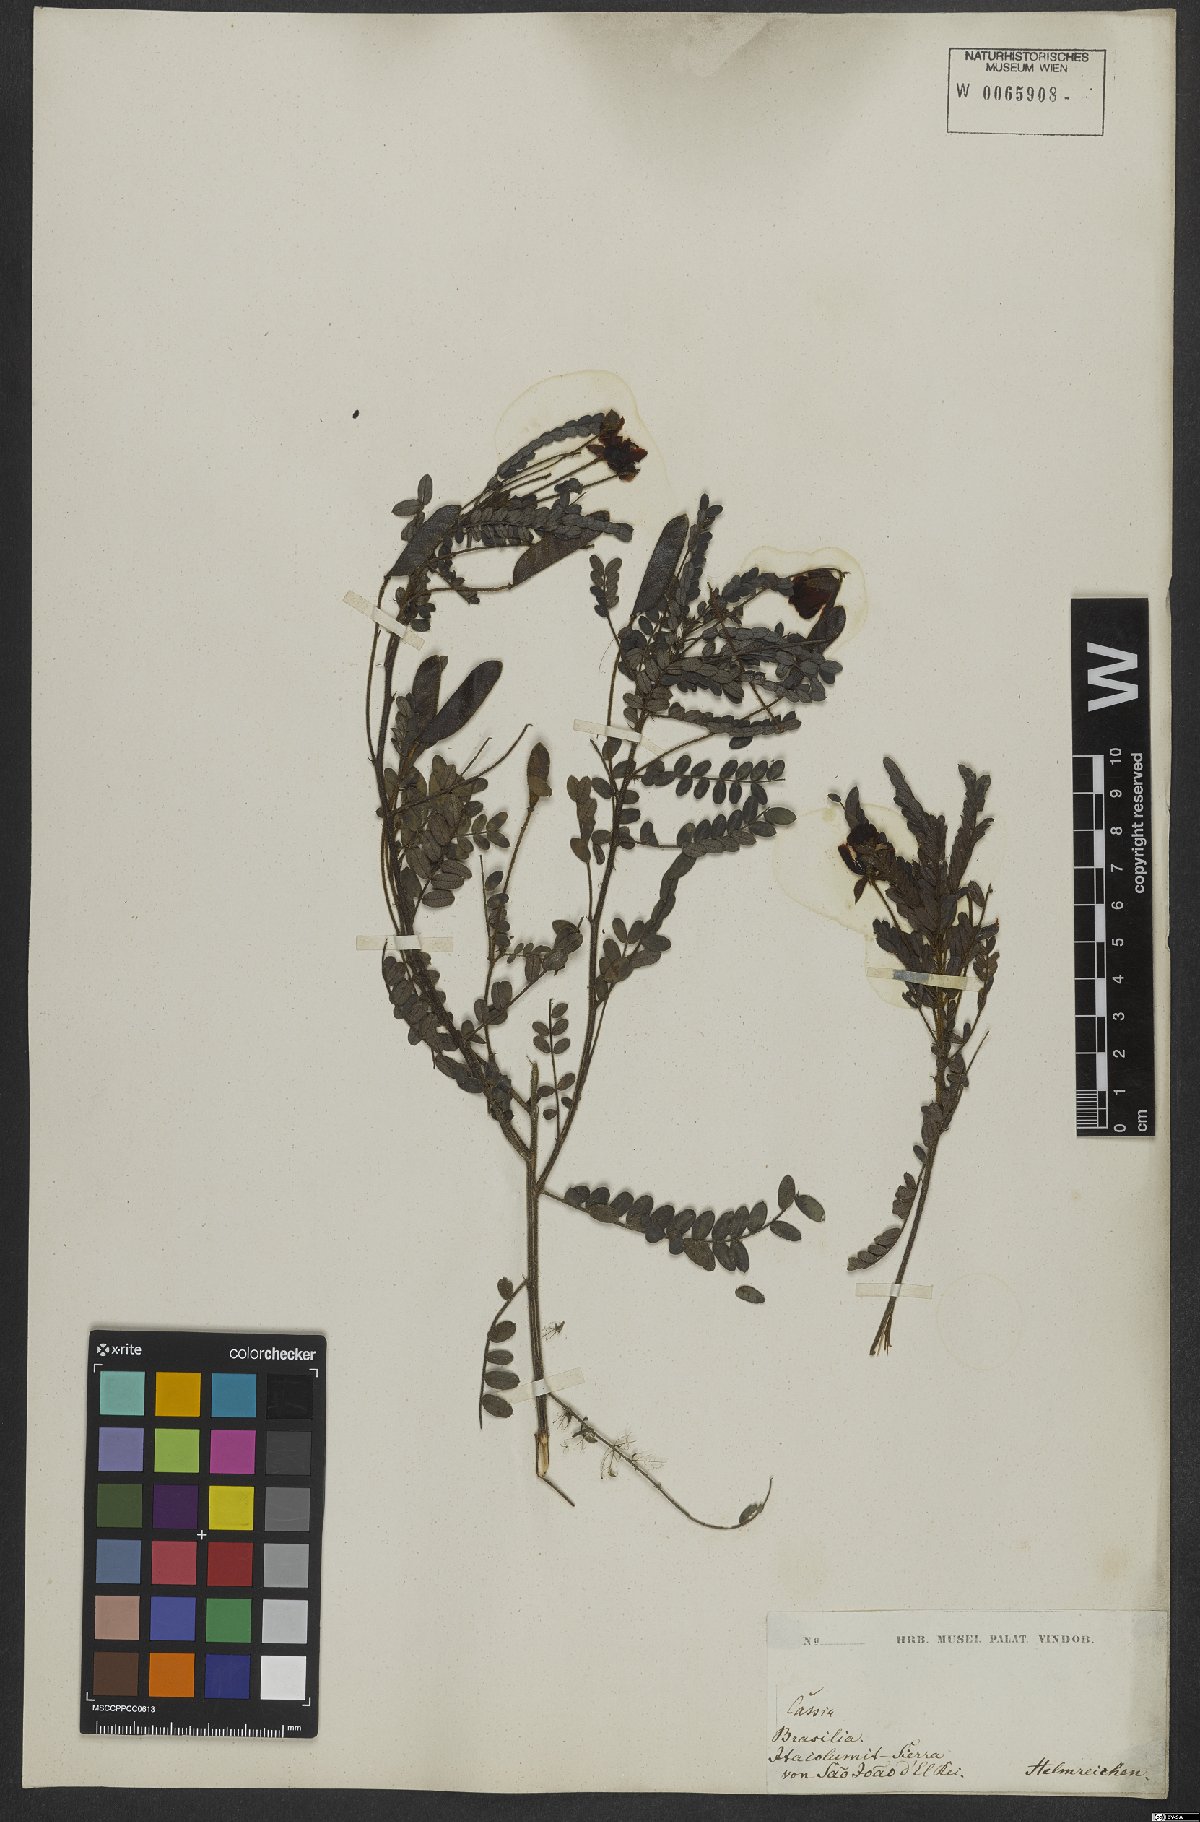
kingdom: Plantae
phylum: Tracheophyta
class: Magnoliopsida
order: Fabales
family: Fabaceae
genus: Chamaecrista
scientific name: Chamaecrista cathartica
